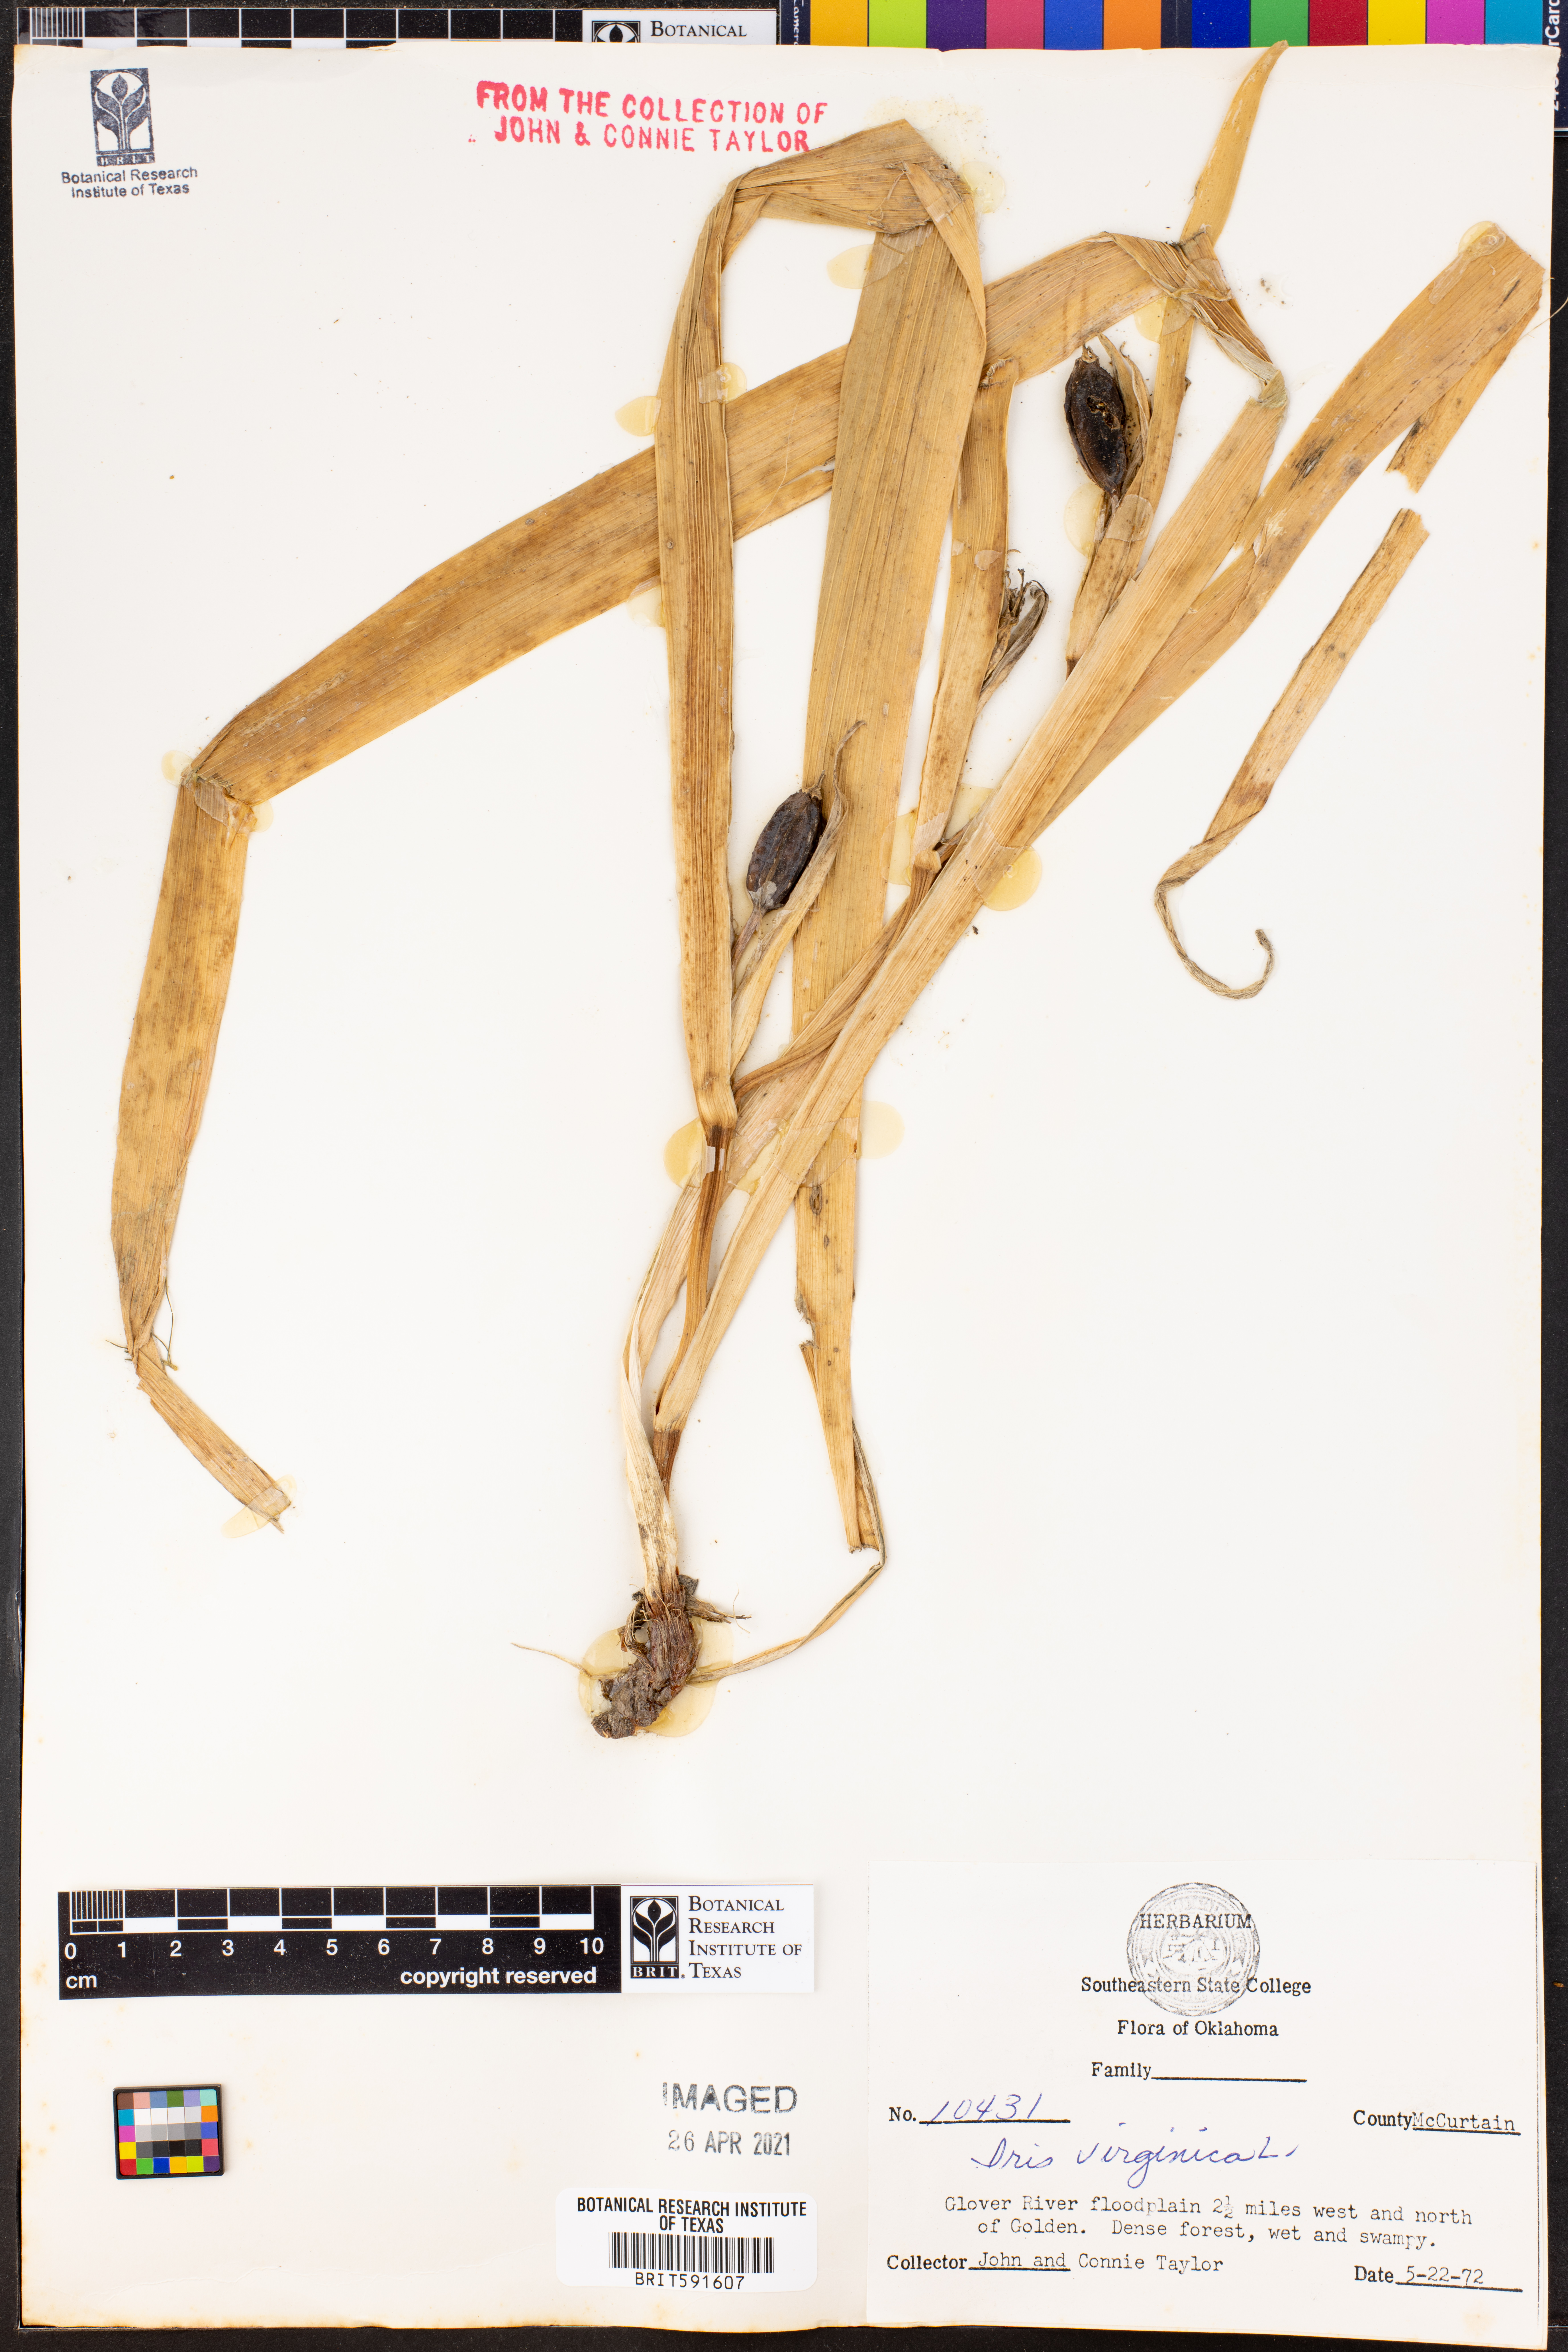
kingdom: Plantae
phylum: Tracheophyta
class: Liliopsida
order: Asparagales
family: Iridaceae
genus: Iris
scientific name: Iris virginica
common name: Southern blue flag
